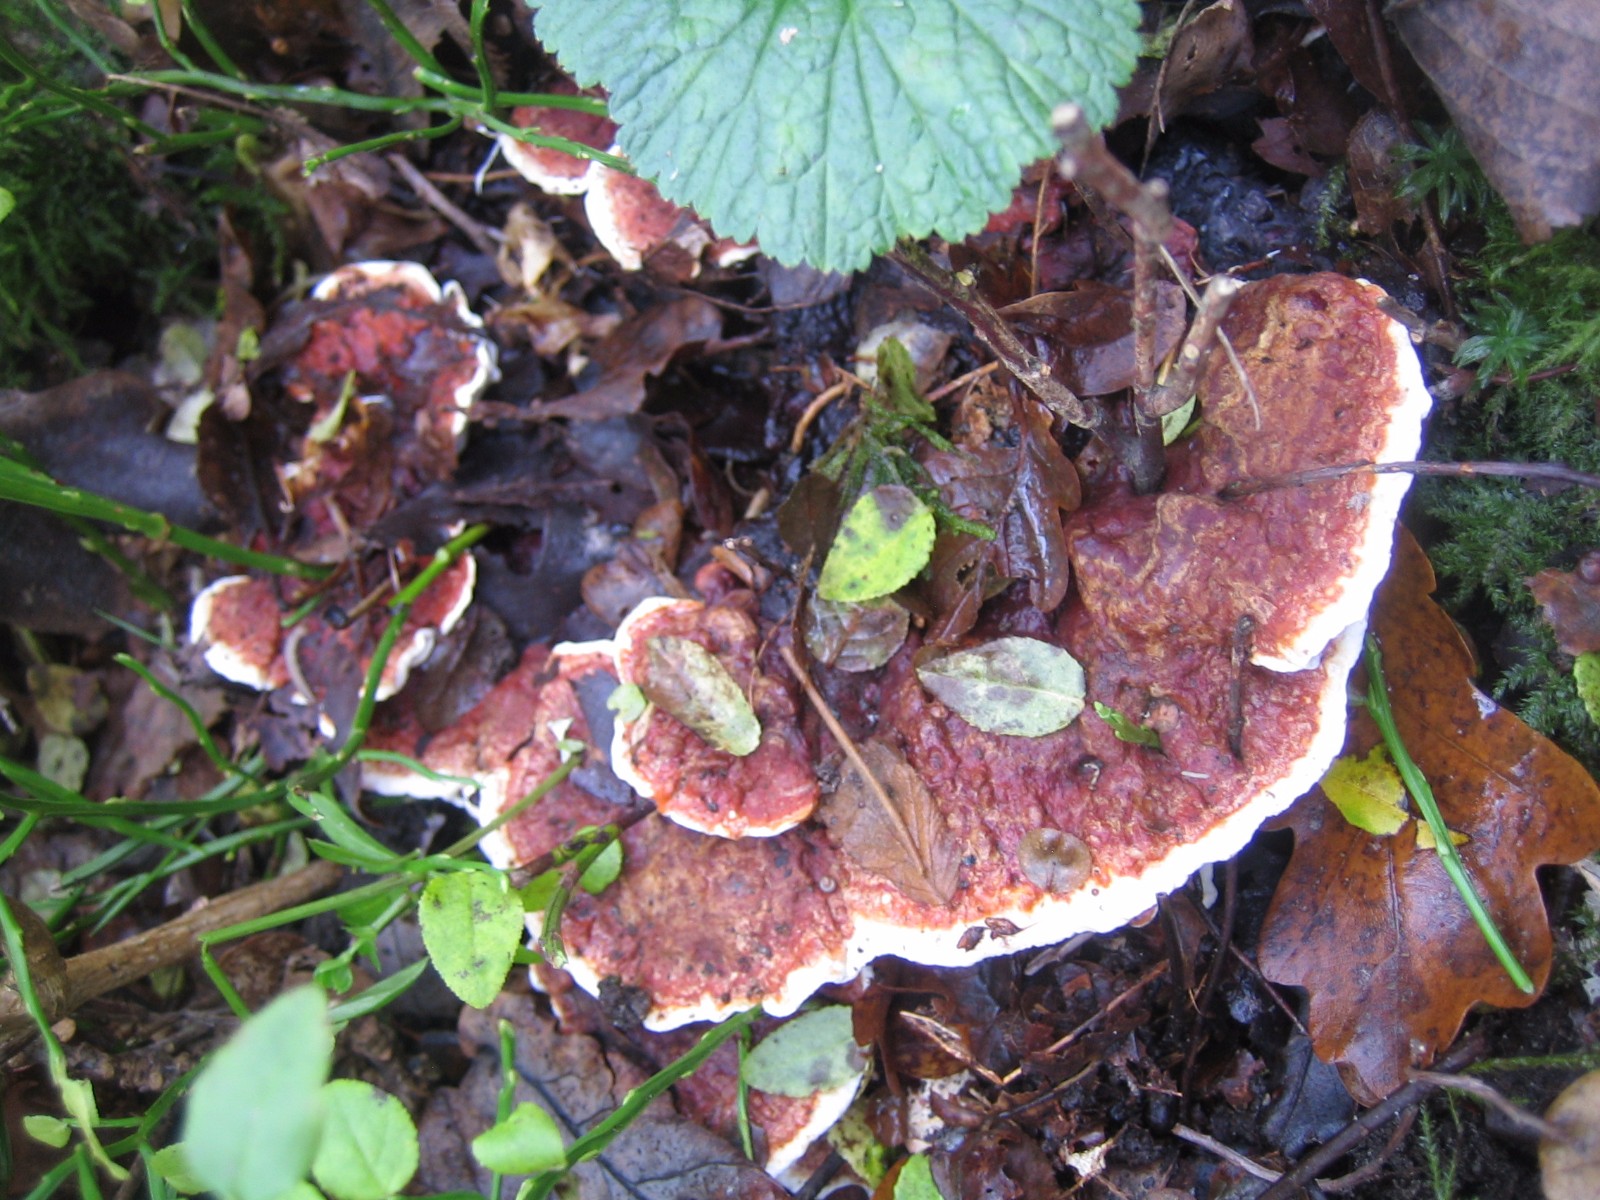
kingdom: Fungi
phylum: Basidiomycota
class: Agaricomycetes
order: Russulales
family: Bondarzewiaceae
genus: Heterobasidion
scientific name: Heterobasidion annosum
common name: almindelig rodfordærver
